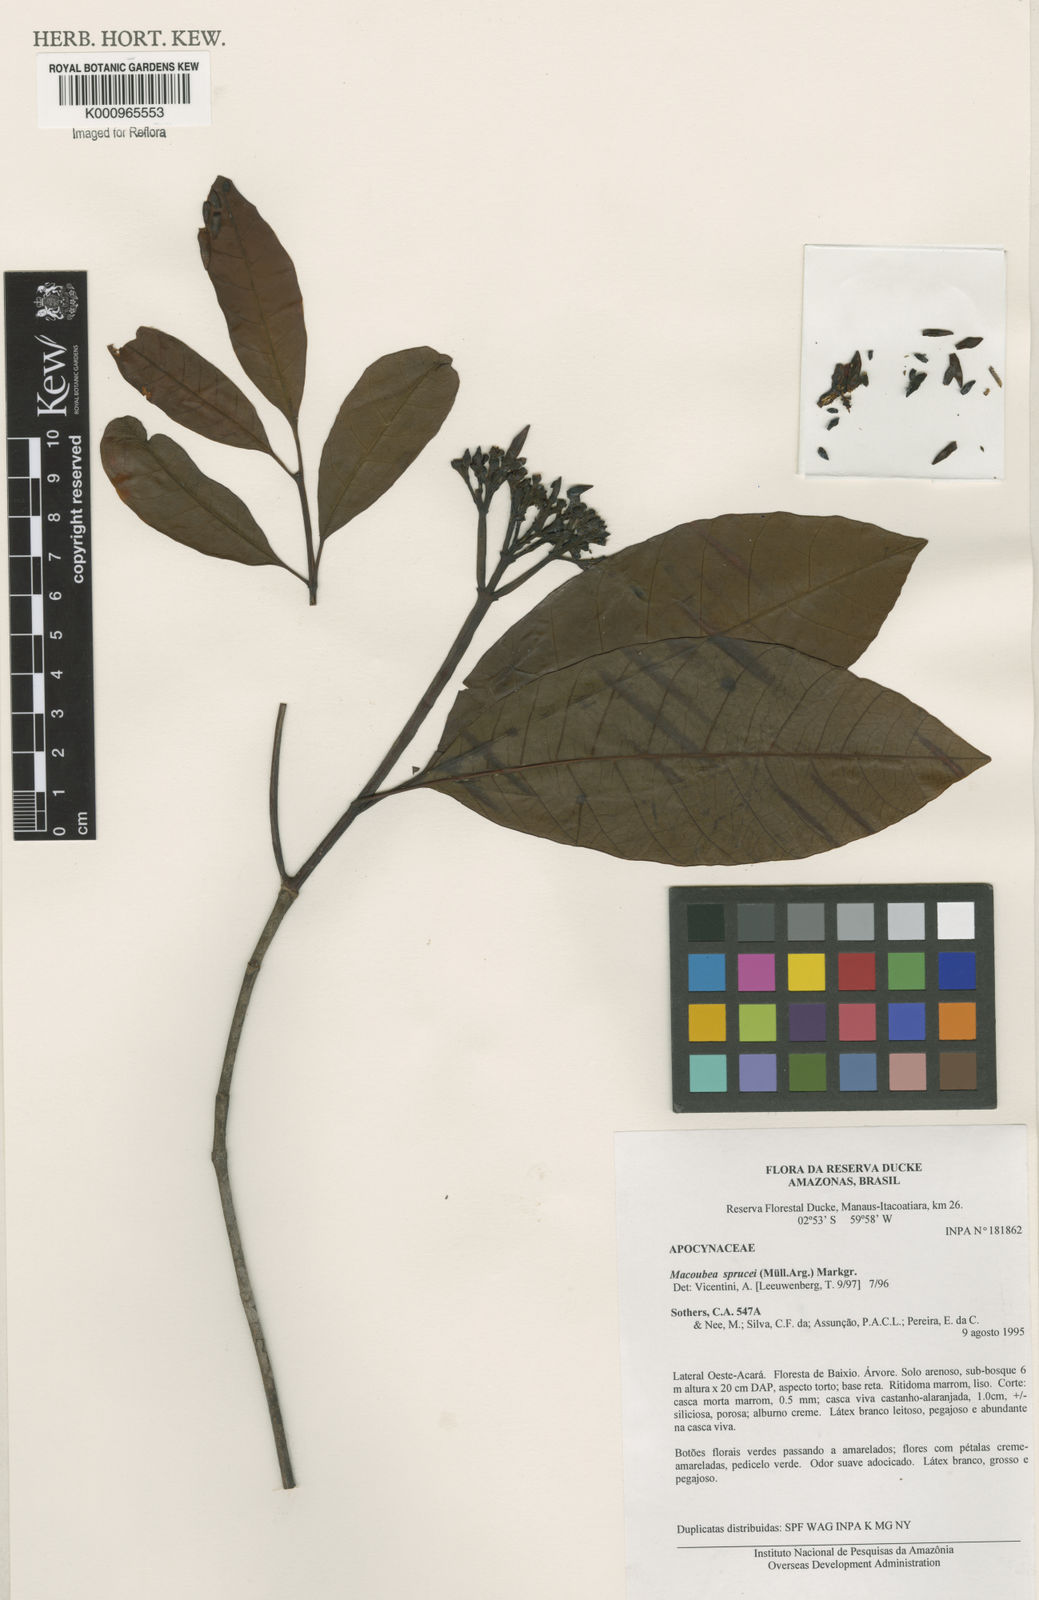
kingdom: Plantae
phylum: Tracheophyta
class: Magnoliopsida
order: Gentianales
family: Apocynaceae
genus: Macoubea
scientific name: Macoubea
